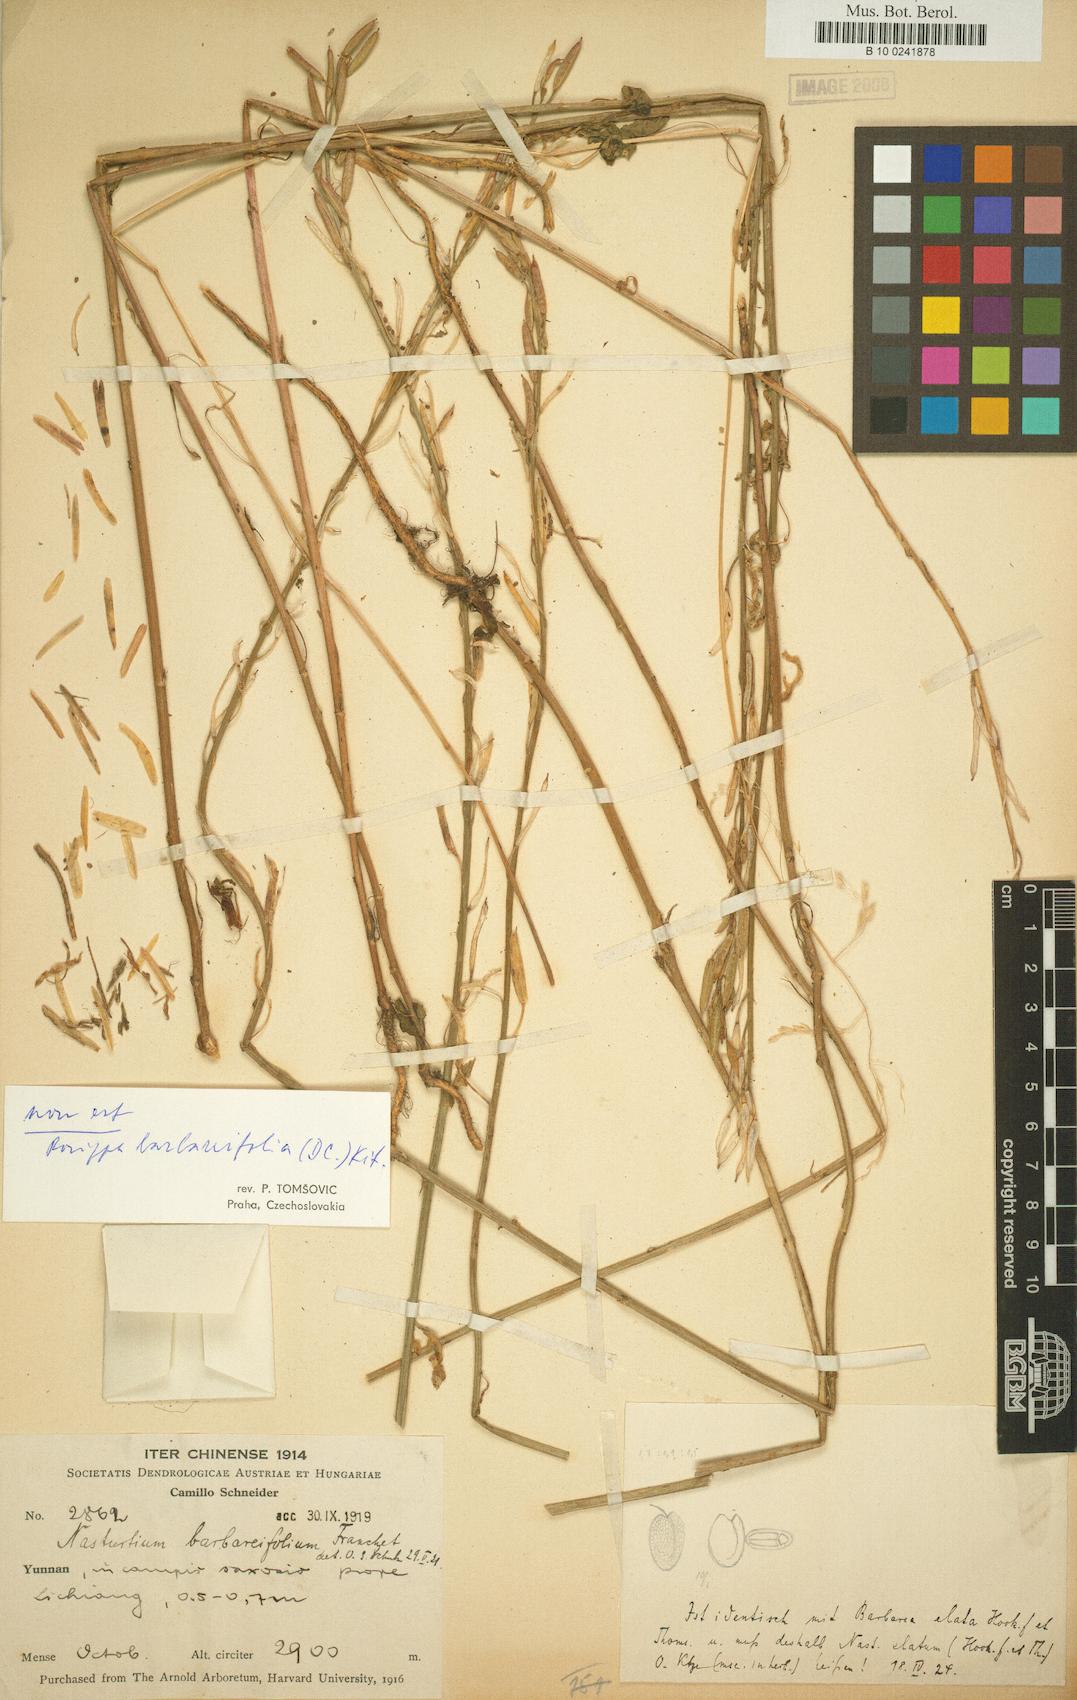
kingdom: Plantae
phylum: Tracheophyta
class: Magnoliopsida
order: Brassicales
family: Brassicaceae
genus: Rorippa
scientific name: Rorippa elata
